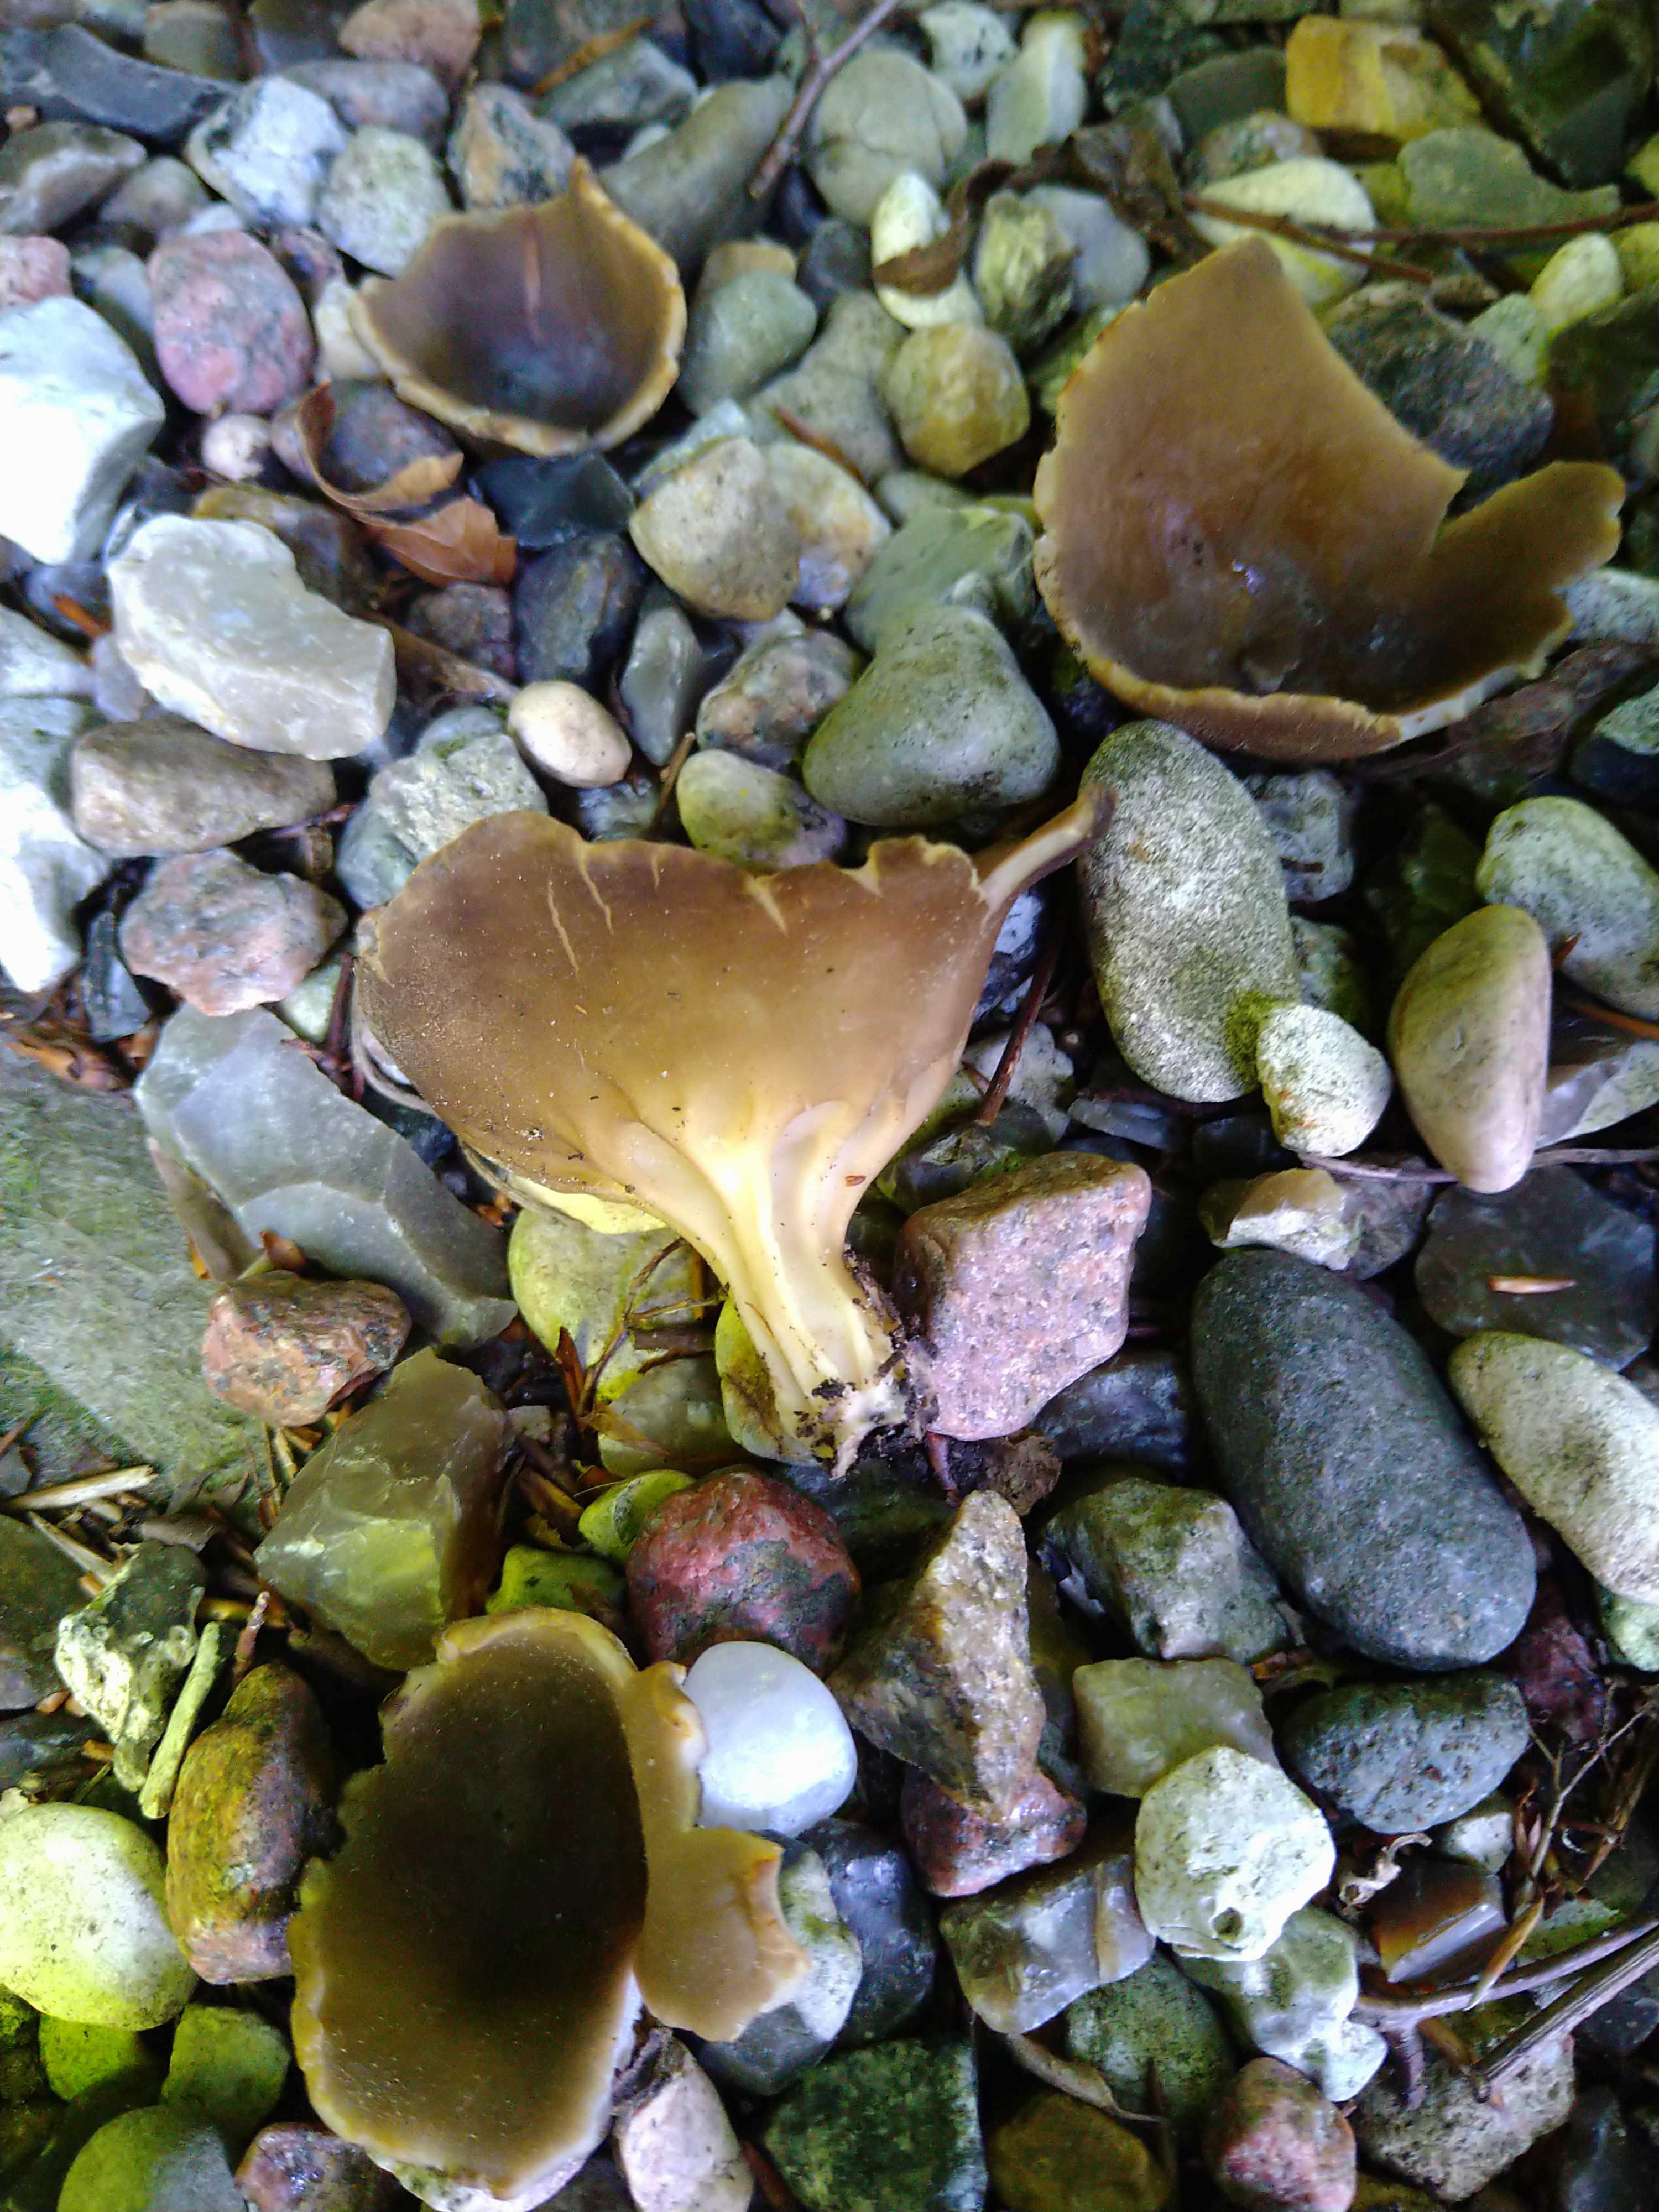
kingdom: Fungi
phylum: Ascomycota
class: Pezizomycetes
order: Pezizales
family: Helvellaceae
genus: Helvella
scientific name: Helvella acetabulum
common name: pokal-foldhat
